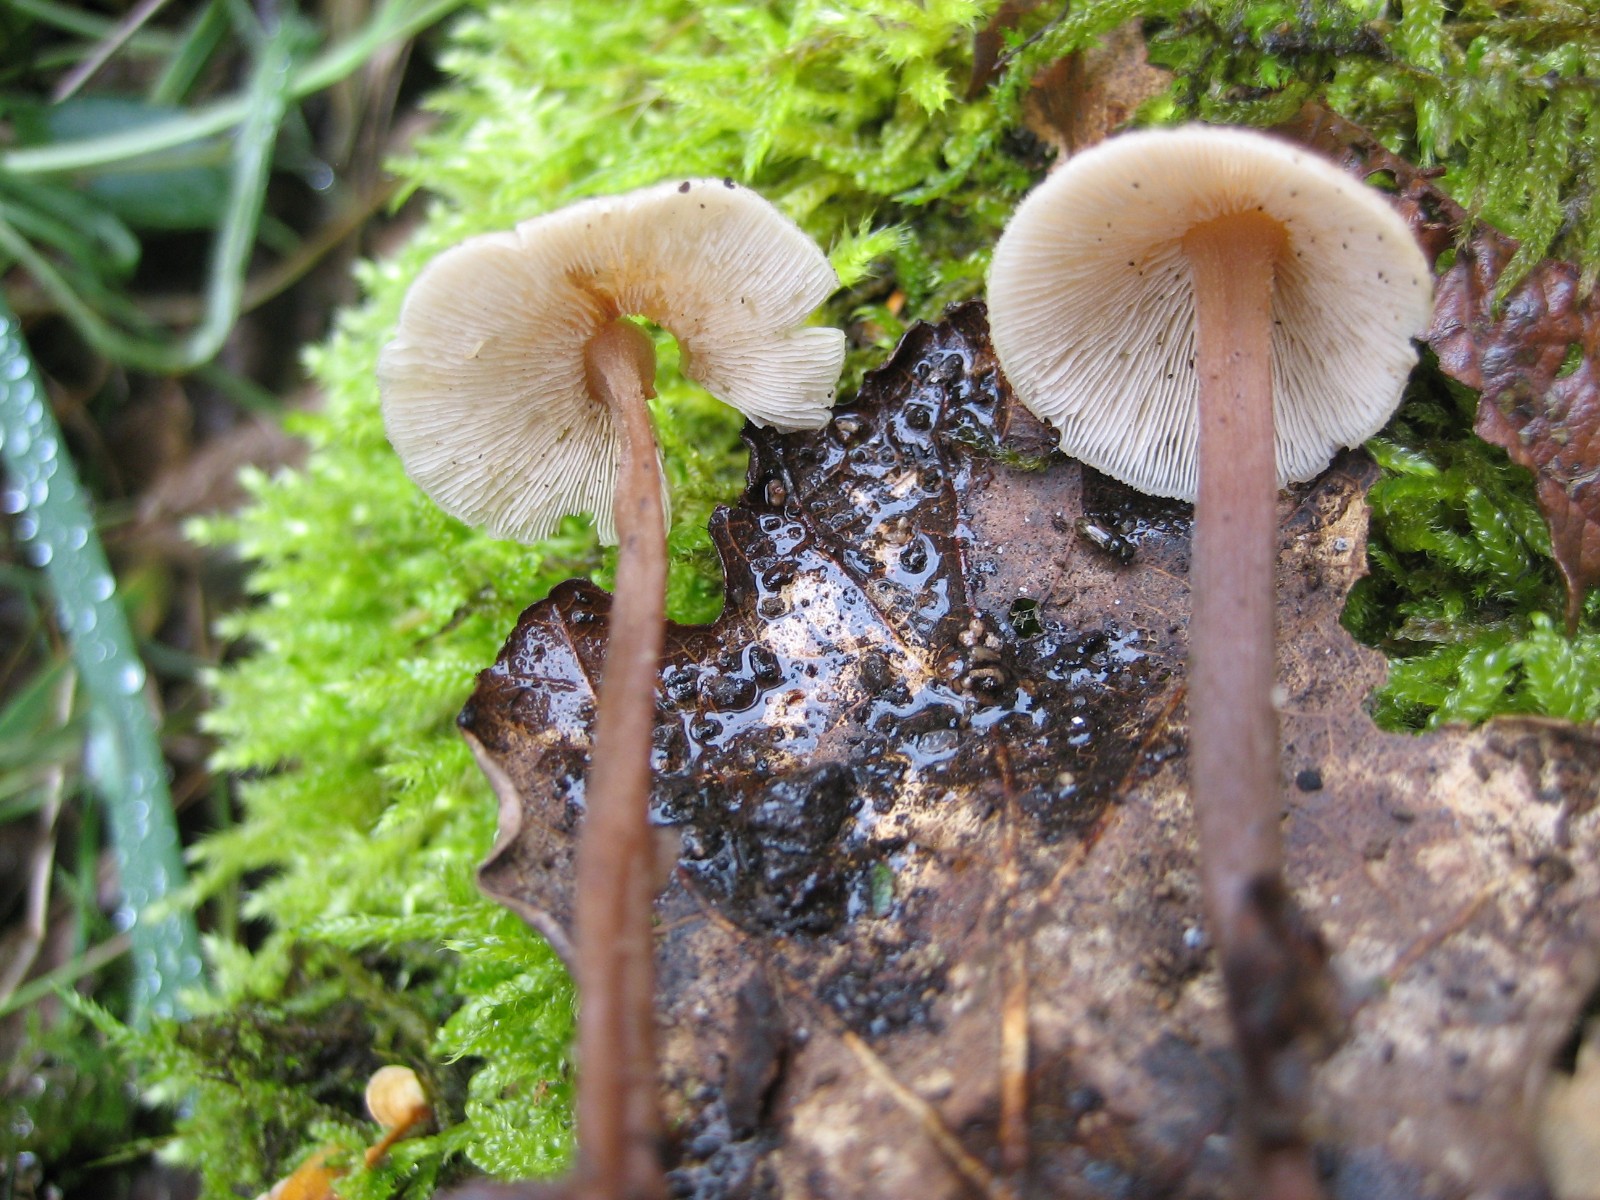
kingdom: Fungi
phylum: Basidiomycota
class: Agaricomycetes
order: Agaricales
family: Omphalotaceae
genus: Collybiopsis
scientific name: Collybiopsis confluens
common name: knippe-fladhat
